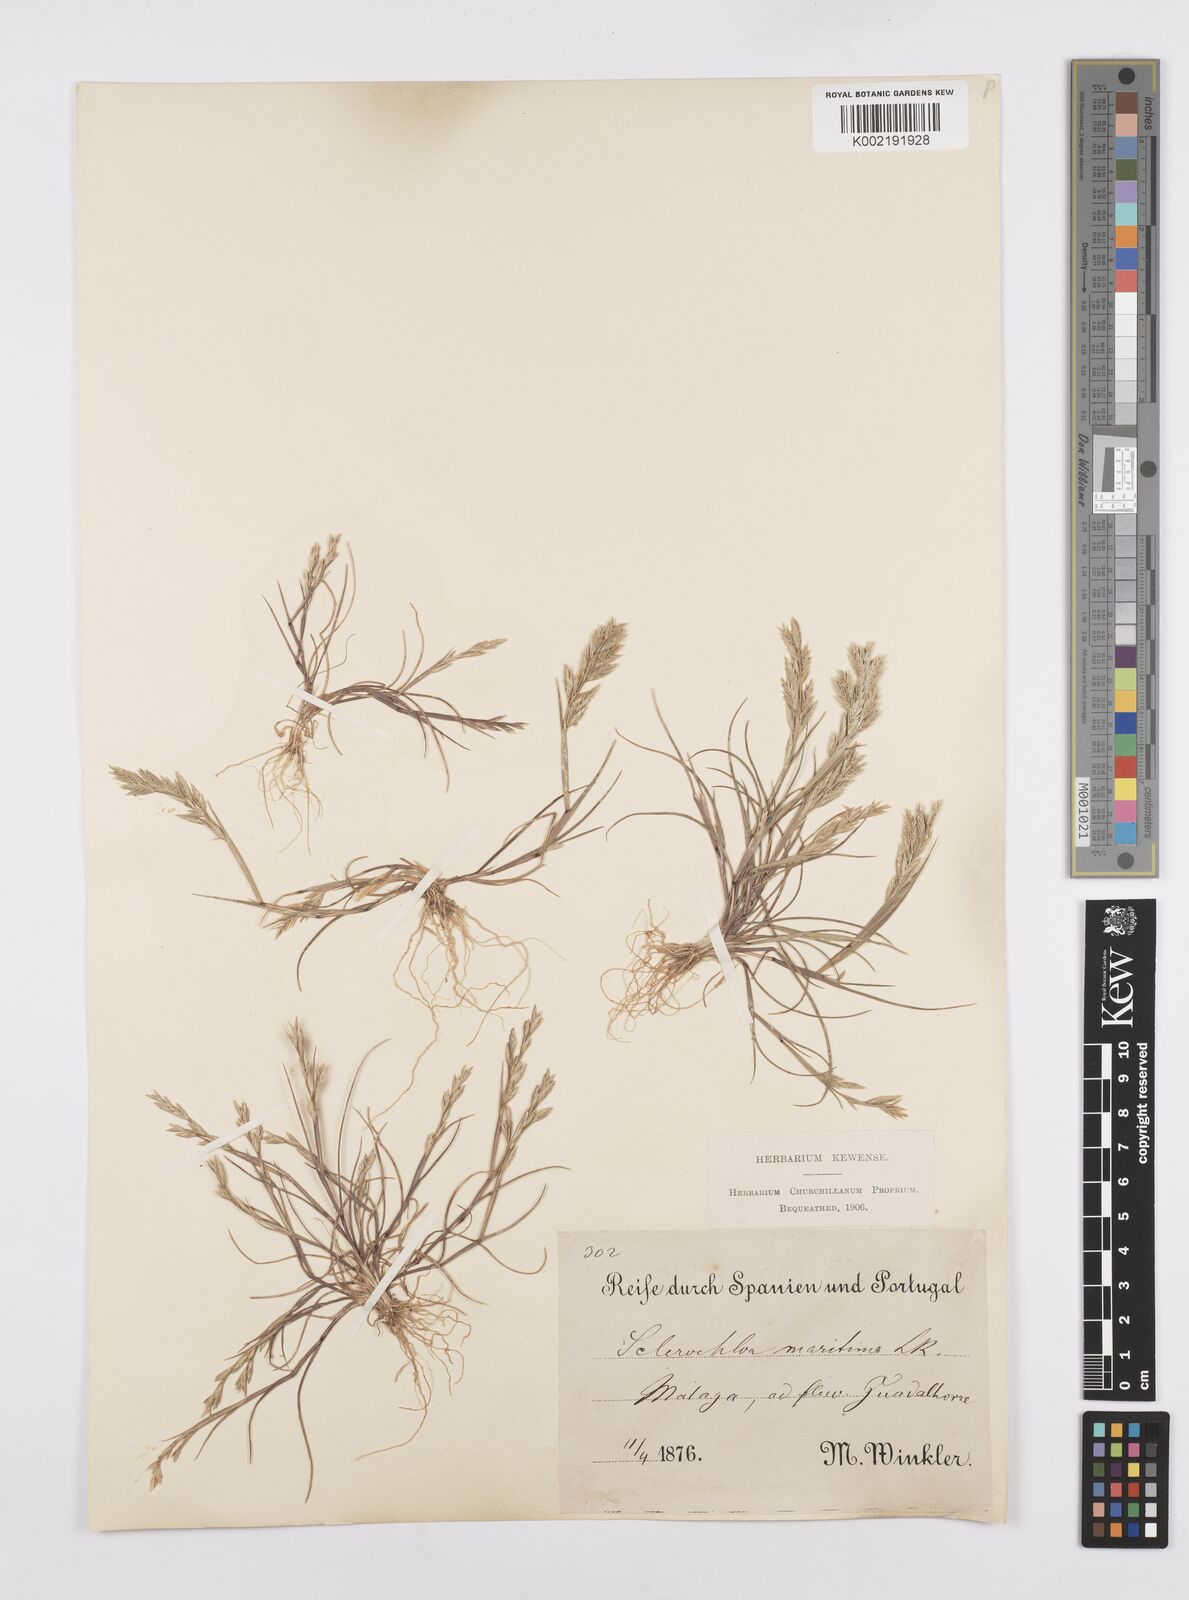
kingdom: Plantae
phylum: Tracheophyta
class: Liliopsida
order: Poales
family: Poaceae
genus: Cutandia
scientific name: Cutandia maritima
